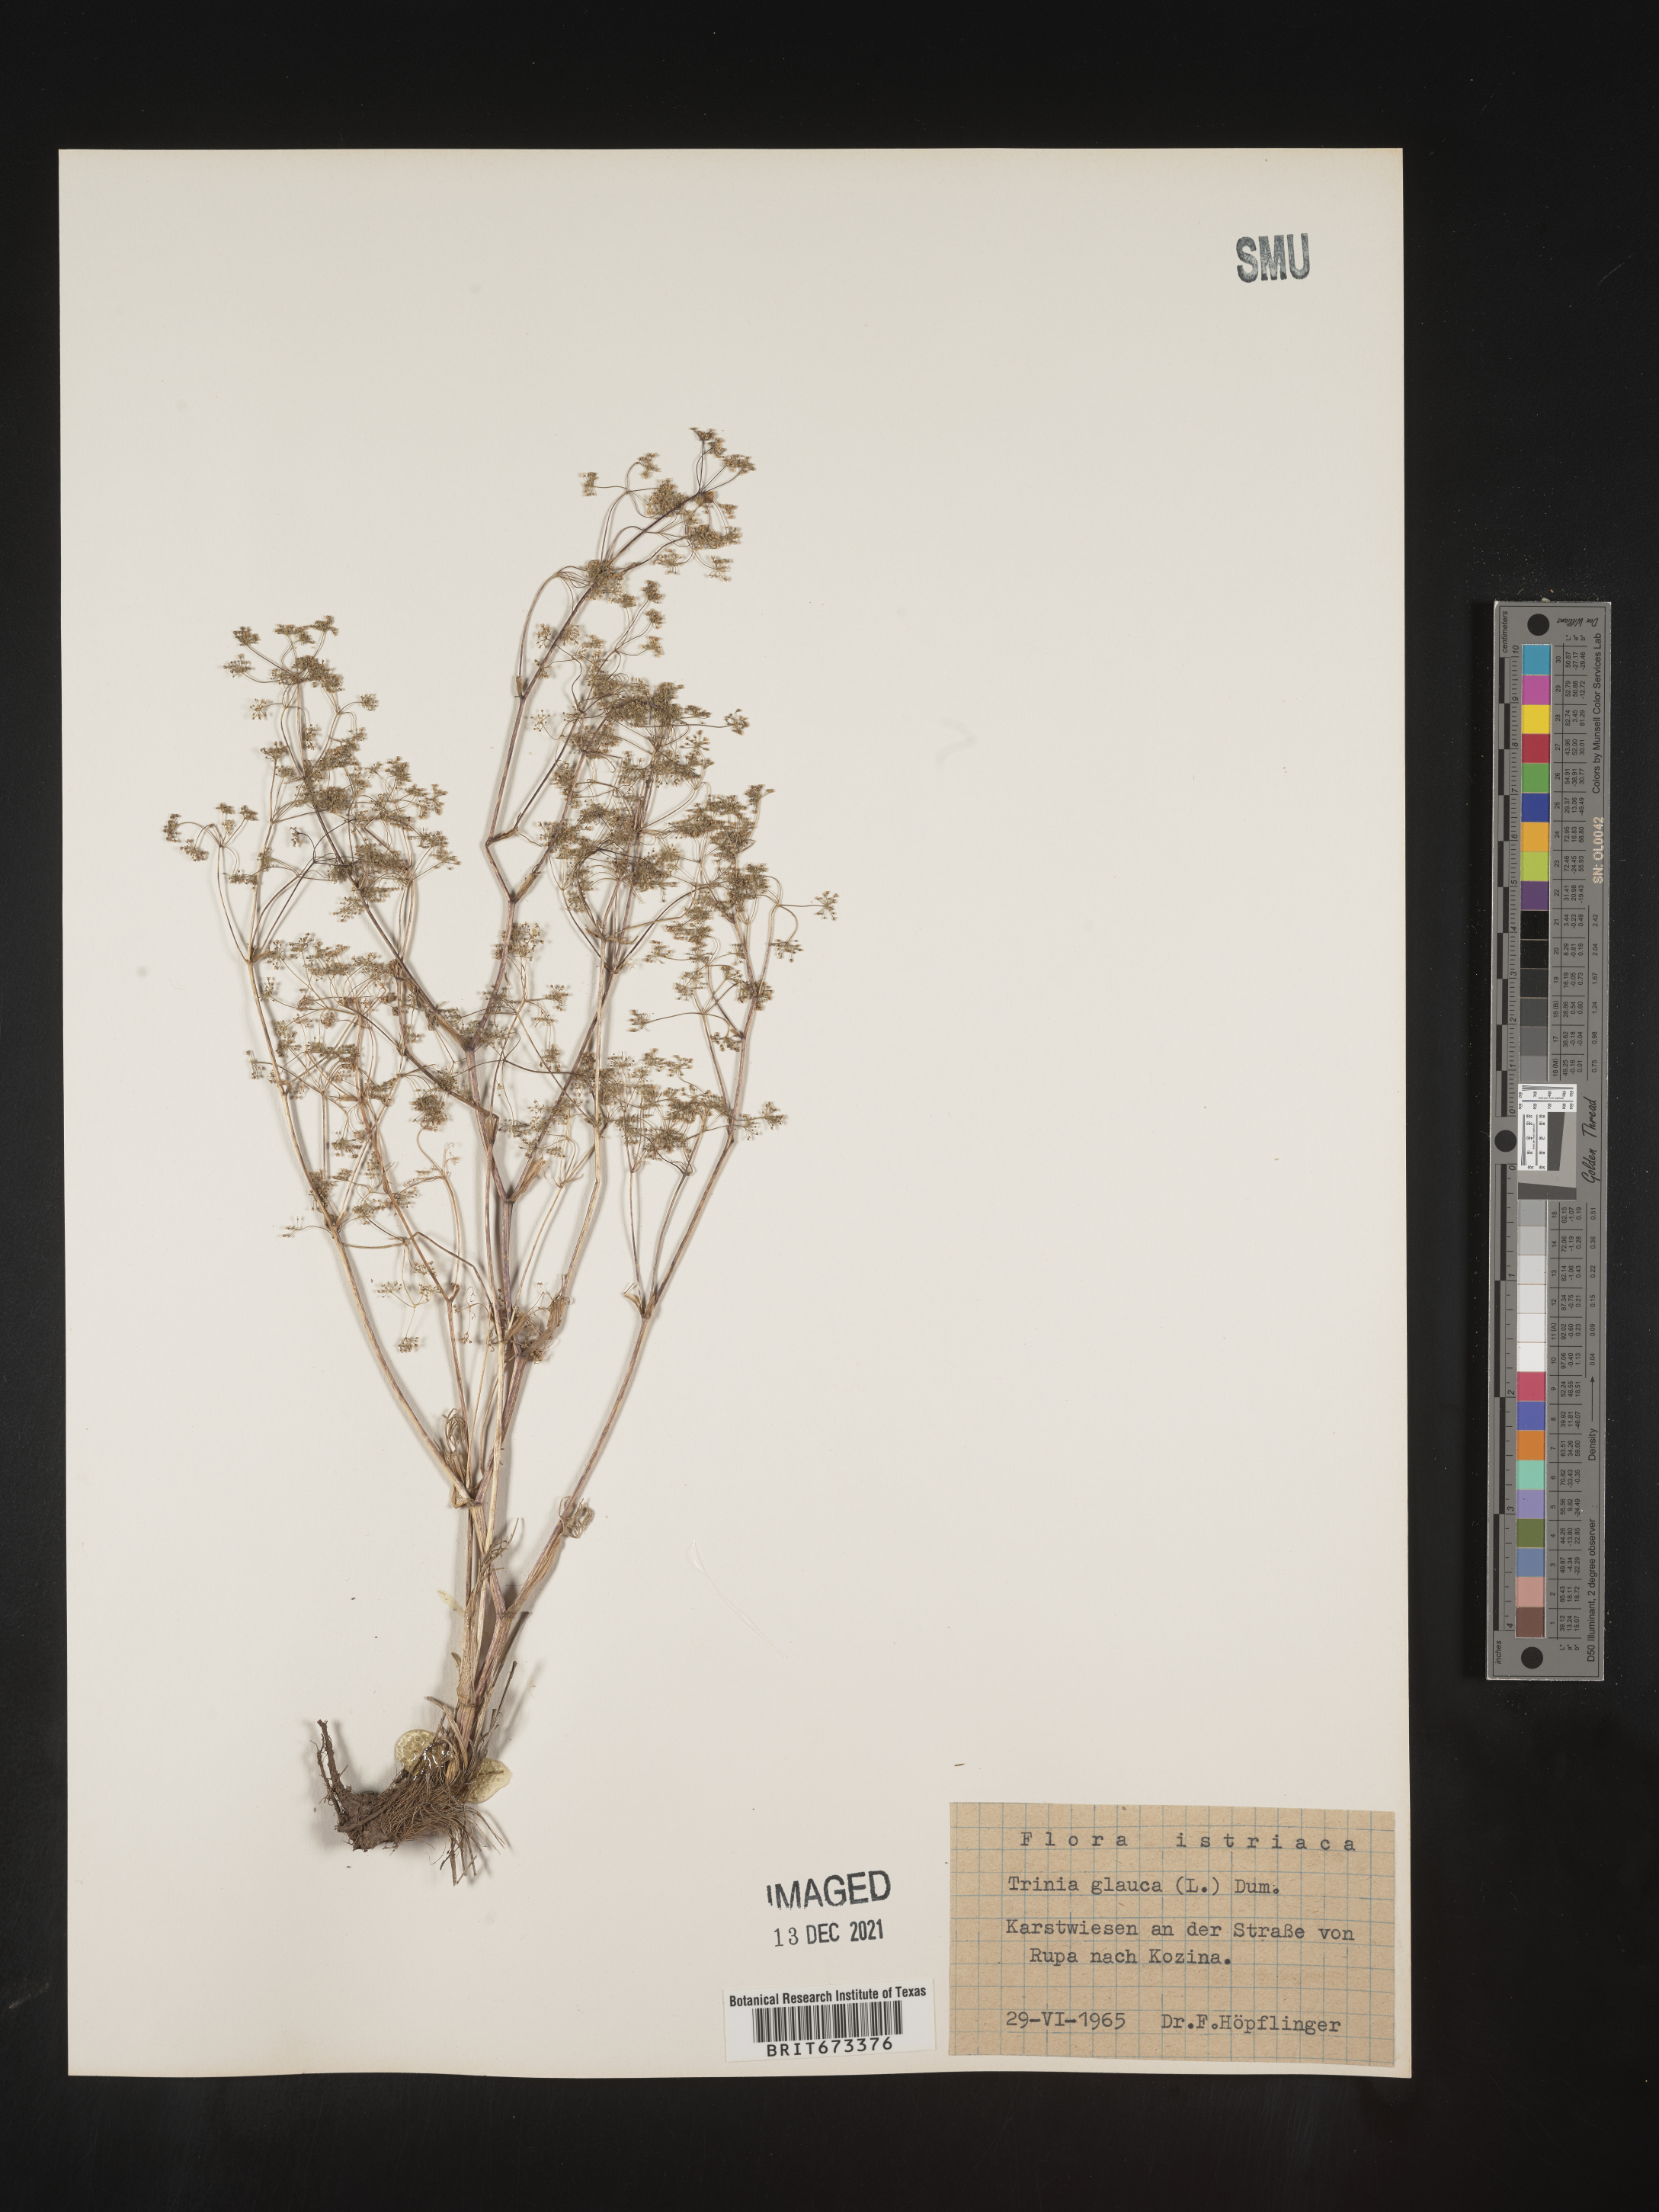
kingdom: Plantae
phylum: Tracheophyta
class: Magnoliopsida
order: Apiales
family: Apiaceae
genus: Trinia
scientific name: Trinia
